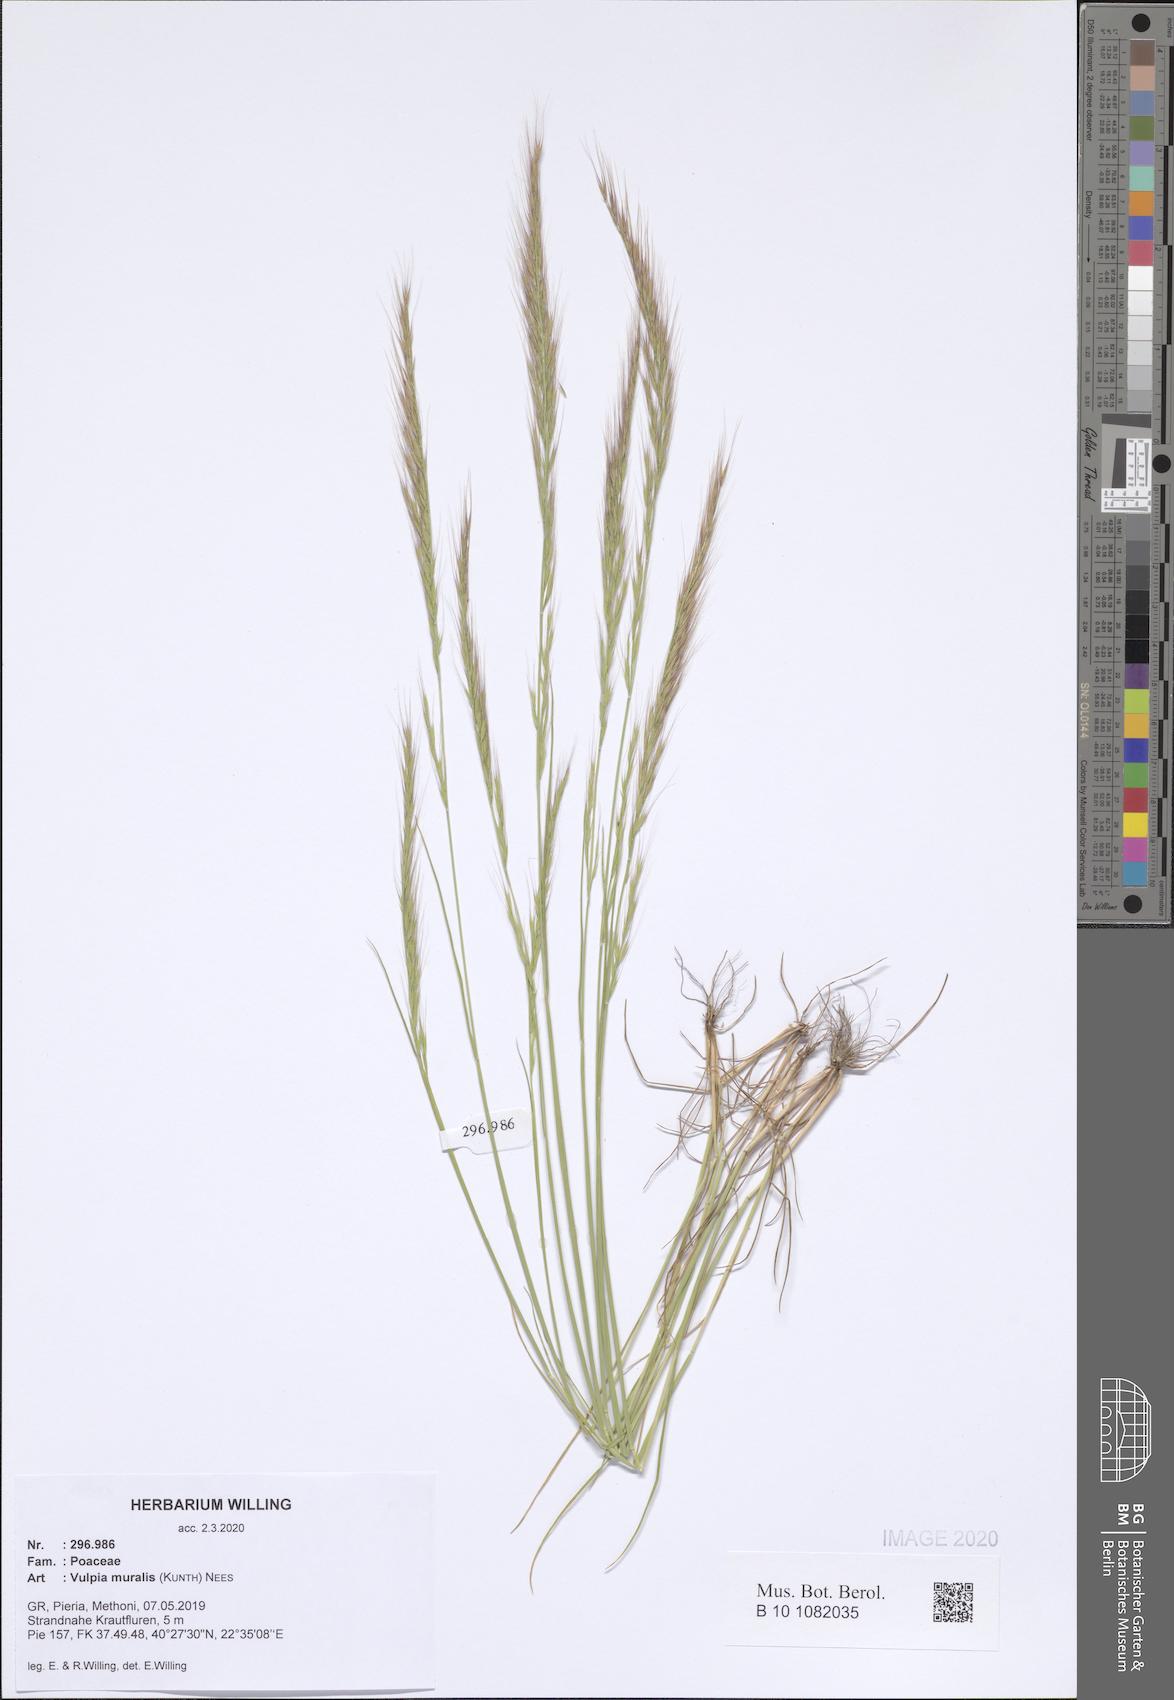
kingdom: Plantae
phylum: Tracheophyta
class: Liliopsida
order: Poales
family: Poaceae
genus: Festuca
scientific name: Festuca muralis
